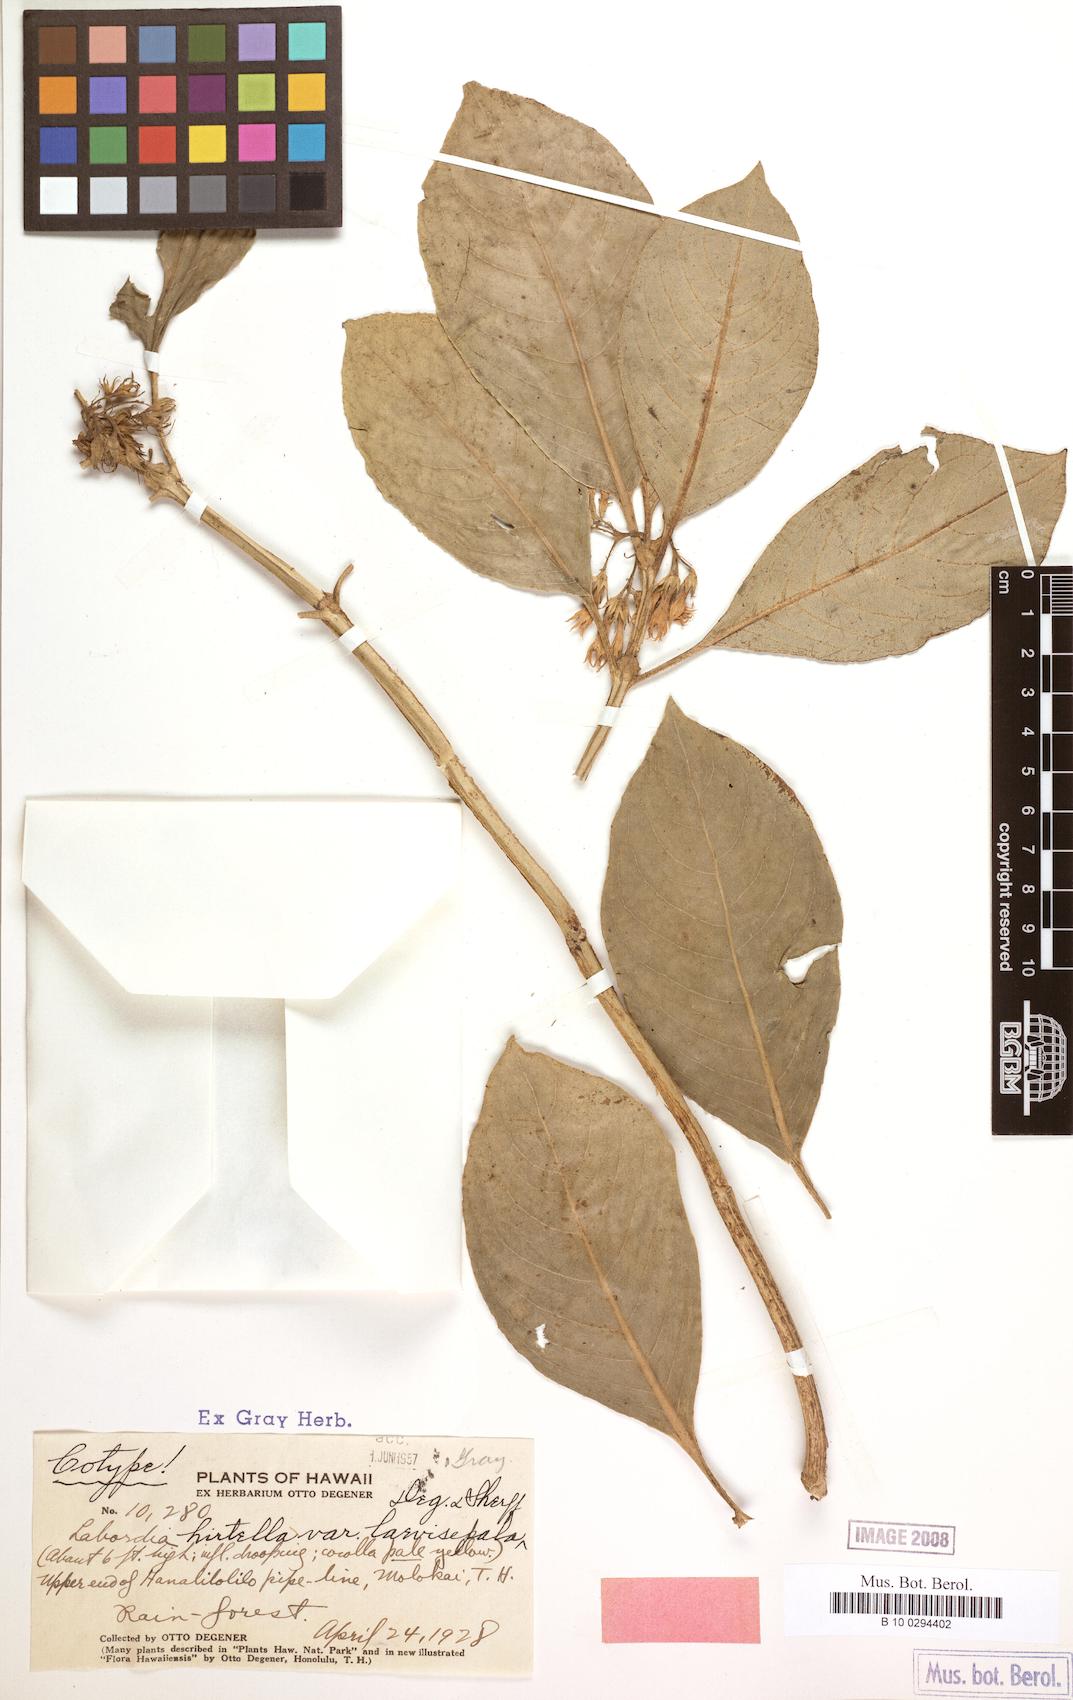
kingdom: Plantae
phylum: Tracheophyta
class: Magnoliopsida
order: Gentianales
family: Loganiaceae
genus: Geniostoma
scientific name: Geniostoma hirtellum
